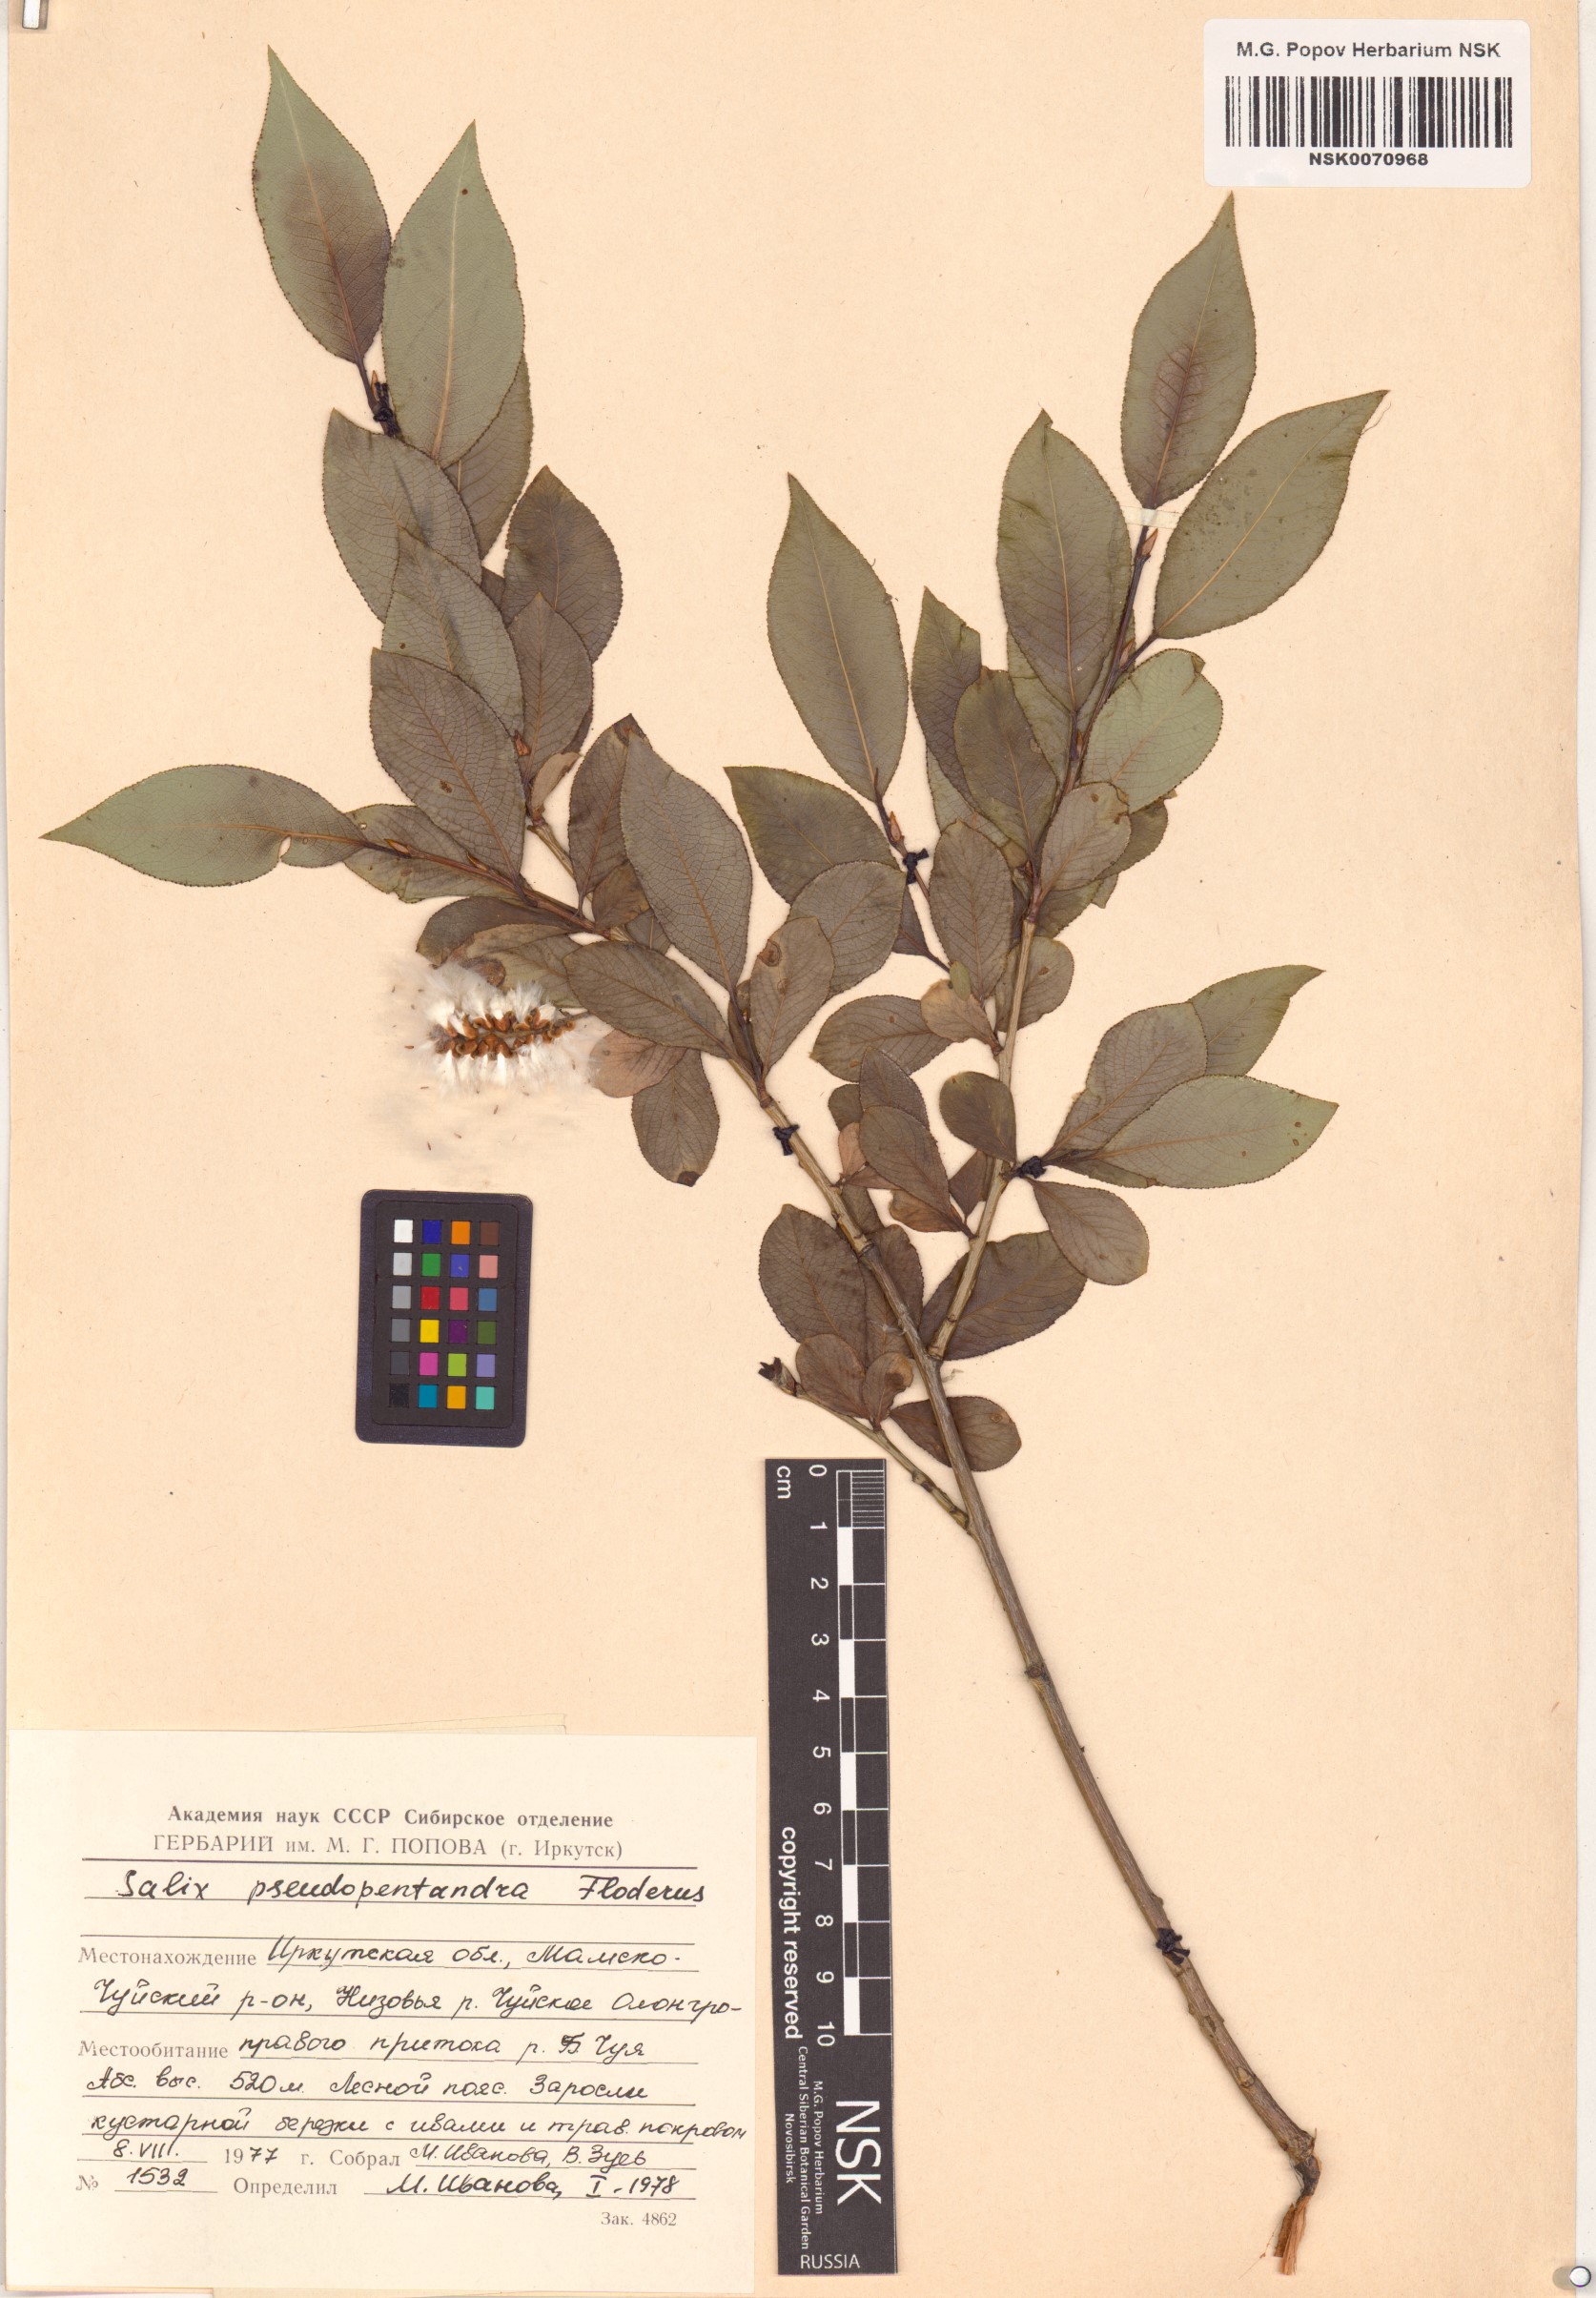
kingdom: Plantae
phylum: Tracheophyta
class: Magnoliopsida
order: Malpighiales
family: Salicaceae
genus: Salix
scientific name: Salix pseudopentandra
